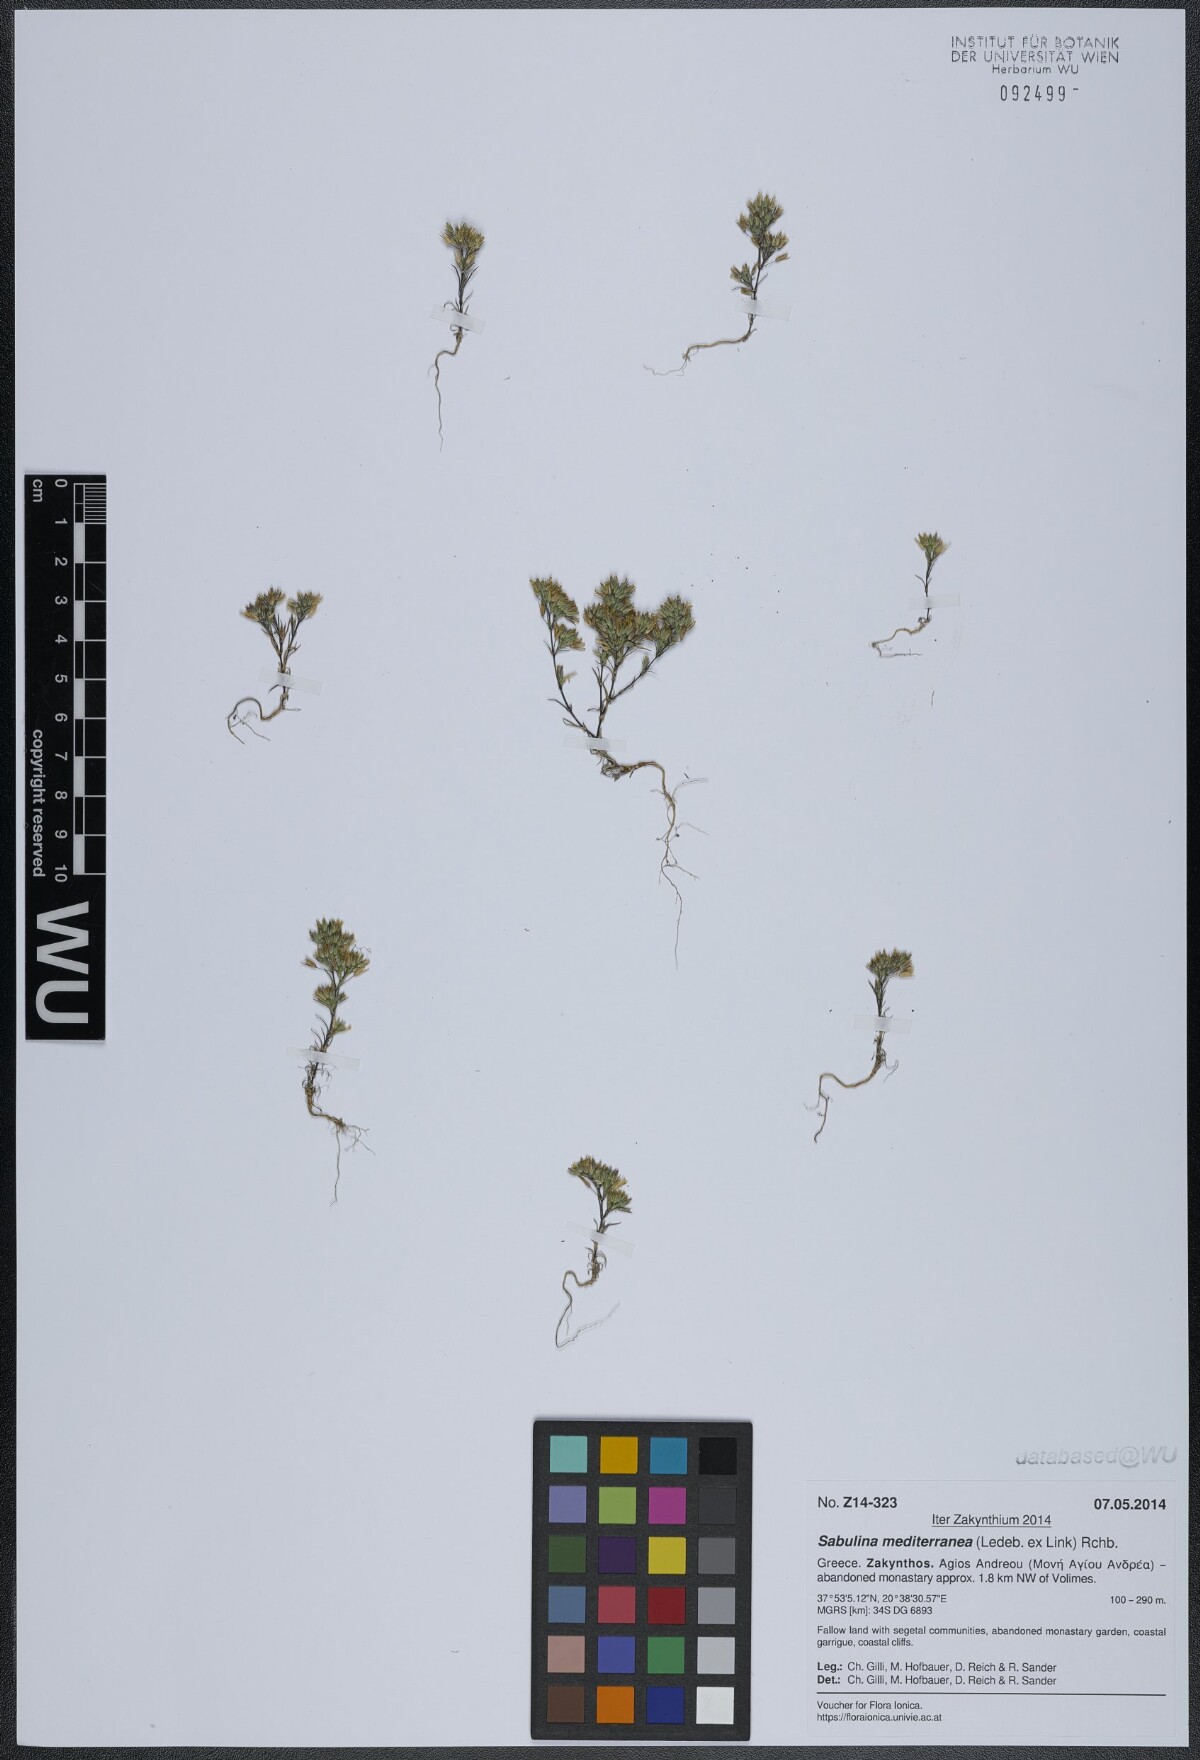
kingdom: Plantae
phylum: Tracheophyta
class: Magnoliopsida
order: Caryophyllales
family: Caryophyllaceae
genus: Sabulina
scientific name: Sabulina mediterranea
